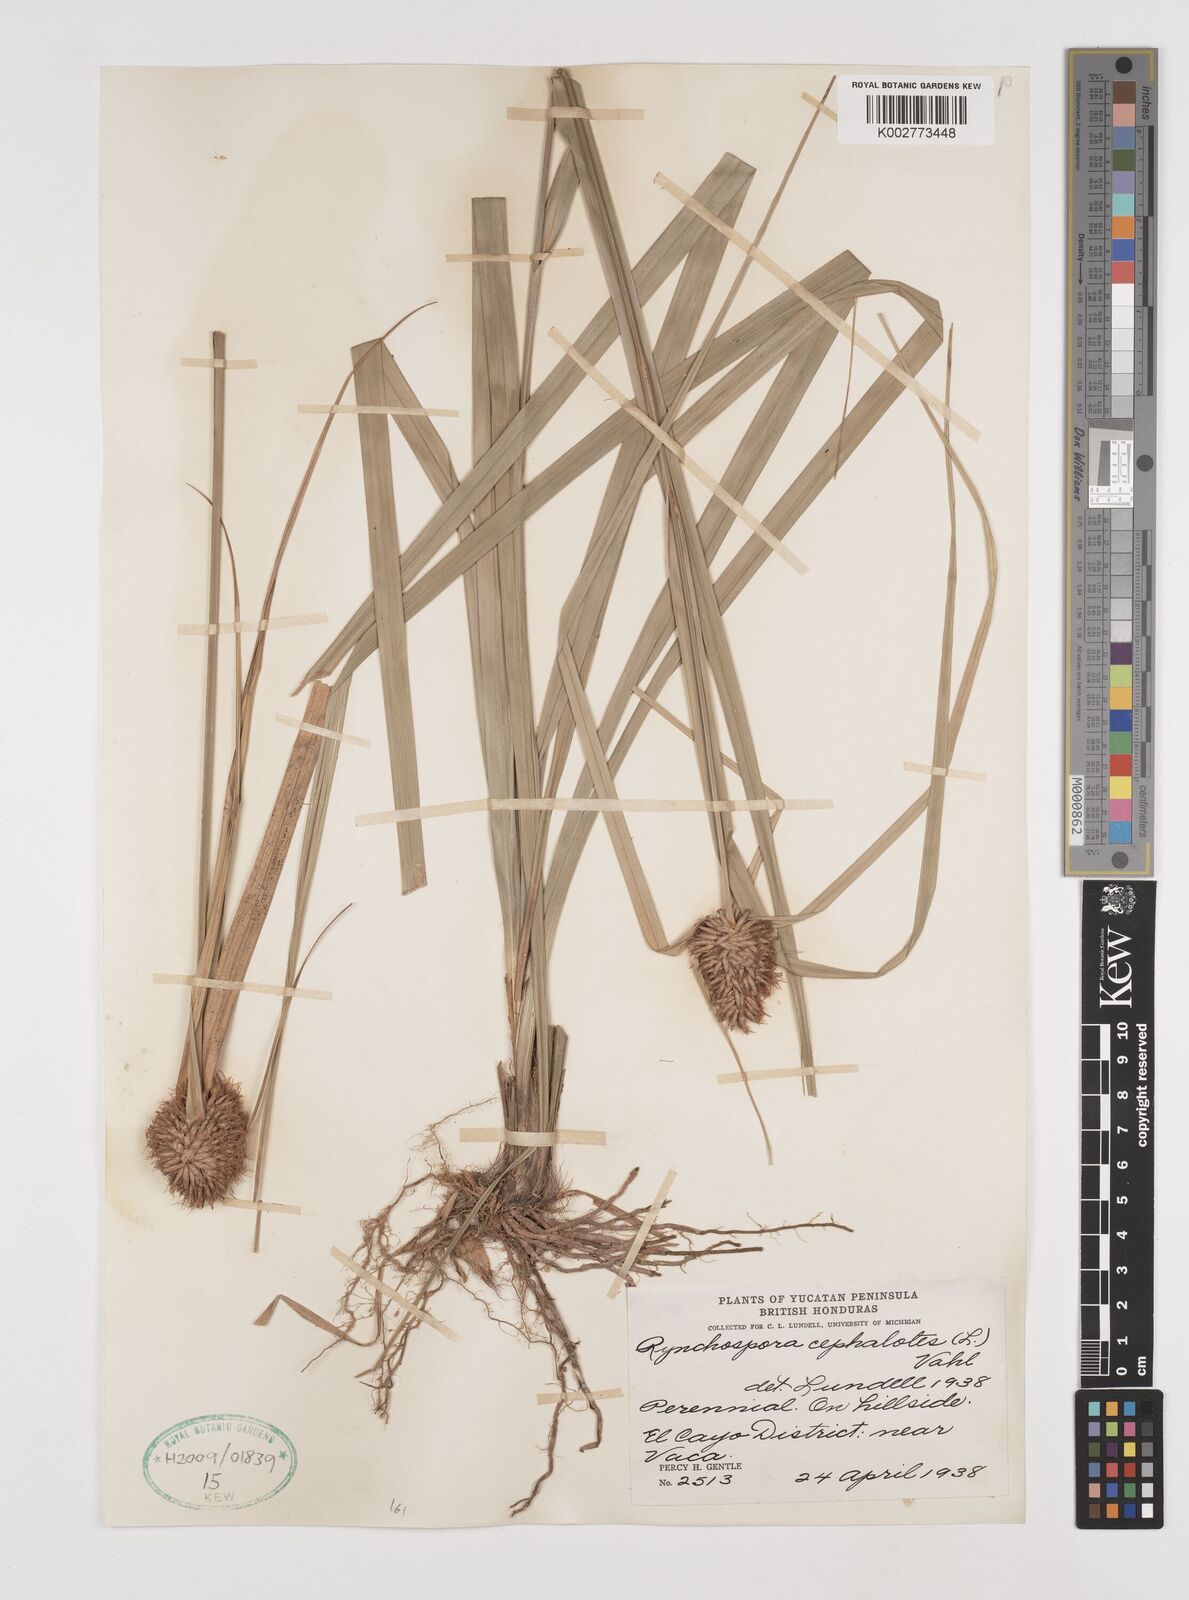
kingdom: Plantae
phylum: Tracheophyta
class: Liliopsida
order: Poales
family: Cyperaceae
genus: Rhynchospora
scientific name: Rhynchospora cephalotes
